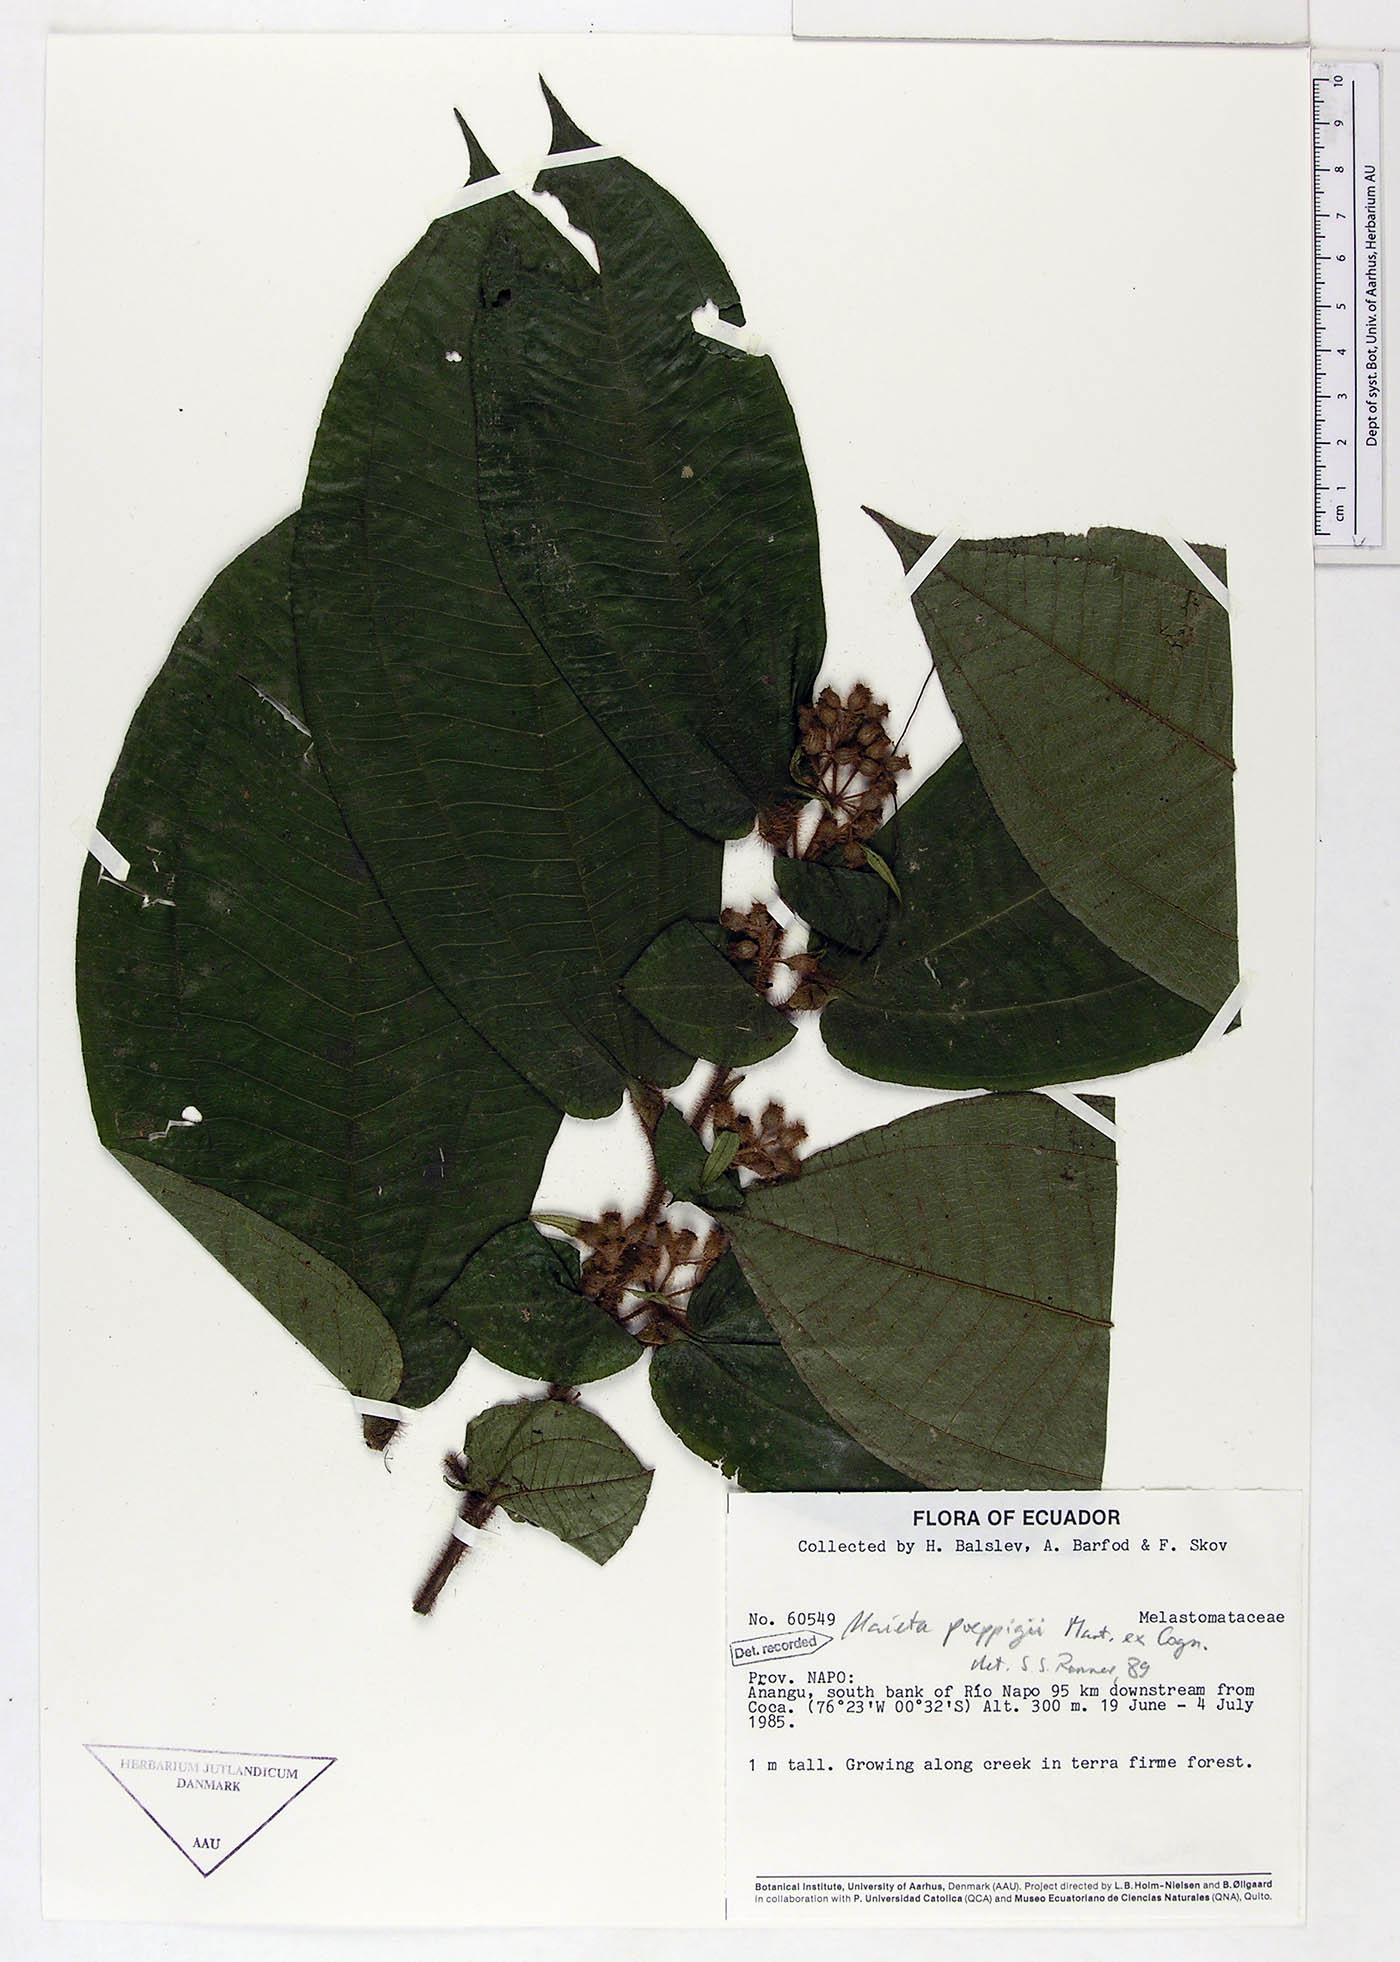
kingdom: Plantae
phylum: Tracheophyta
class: Magnoliopsida
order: Myrtales
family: Melastomataceae
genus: Miconia
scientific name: Miconia alternidomatia
